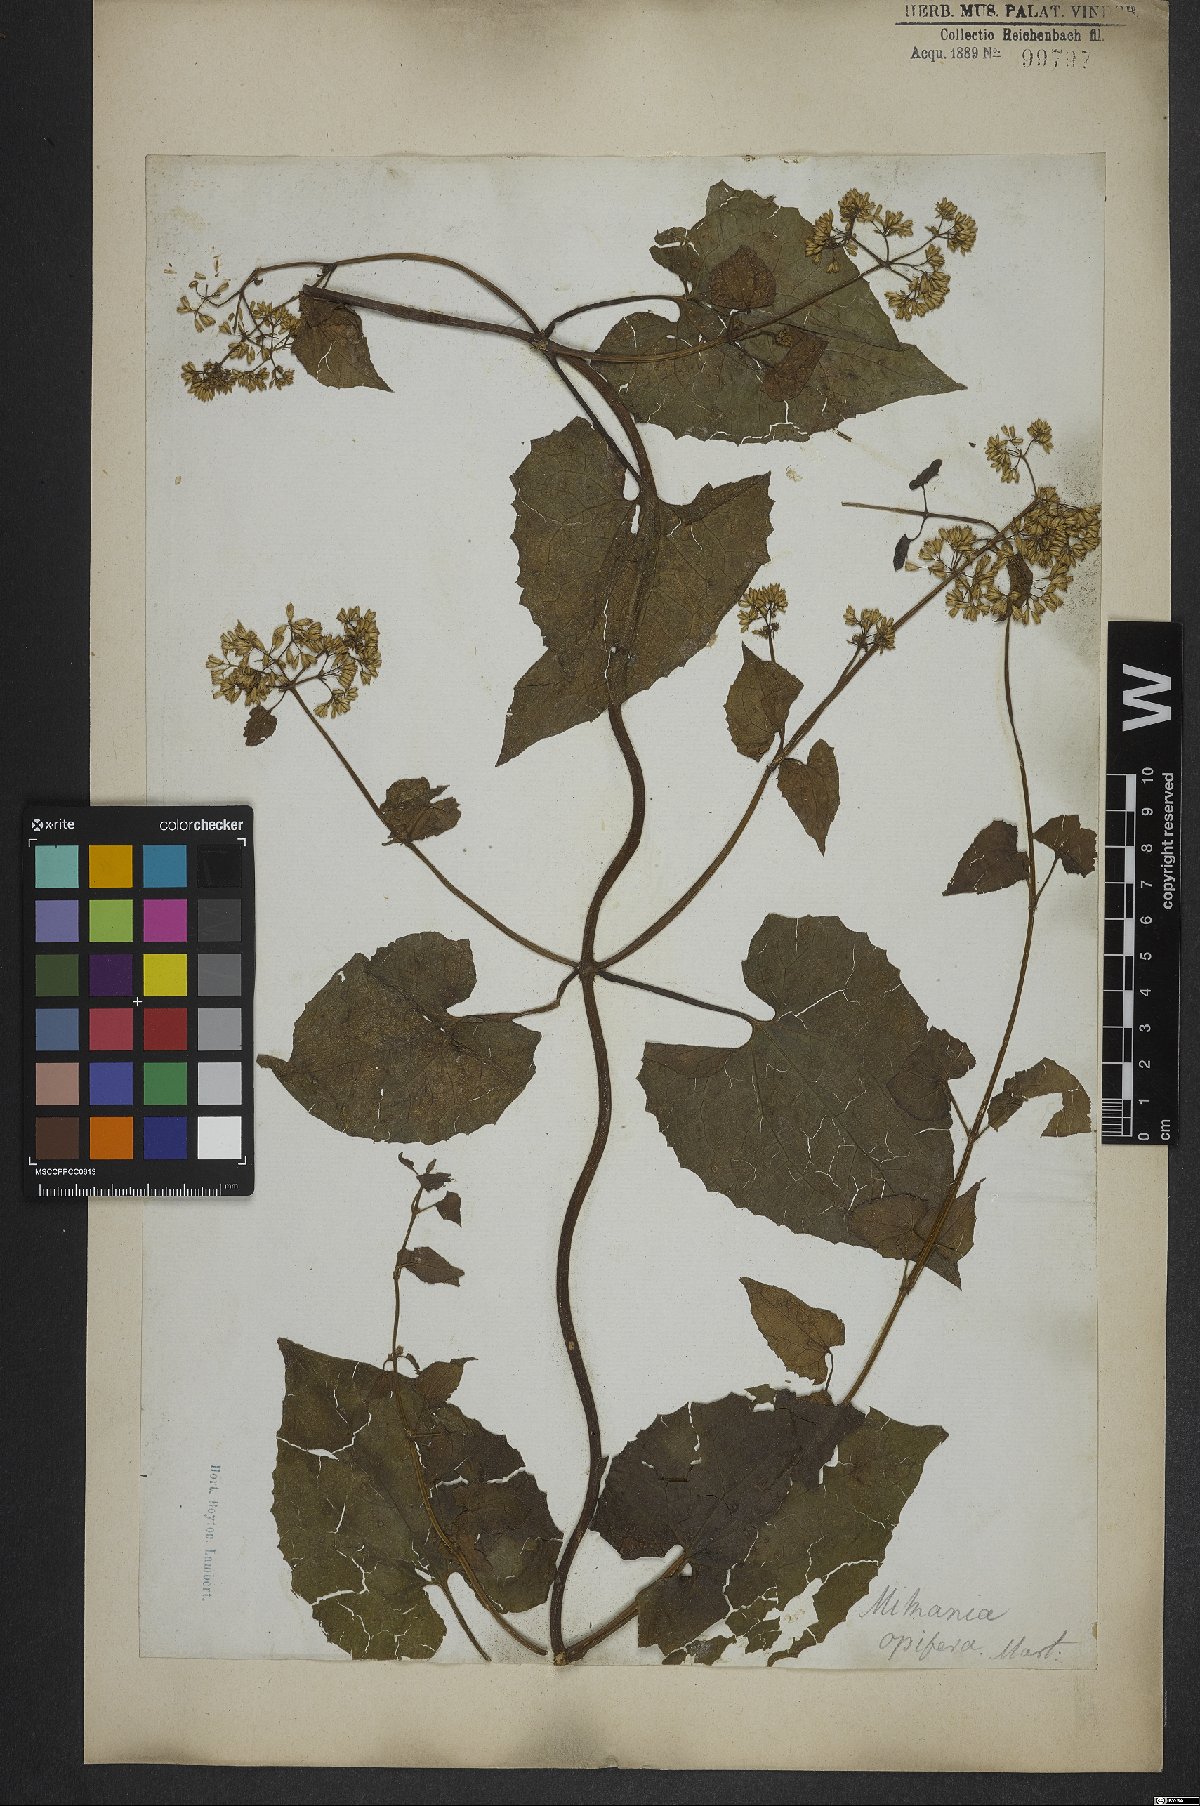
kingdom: Plantae
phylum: Tracheophyta
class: Magnoliopsida
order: Asterales
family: Asteraceae
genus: Mikania
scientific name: Mikania cordifolia
